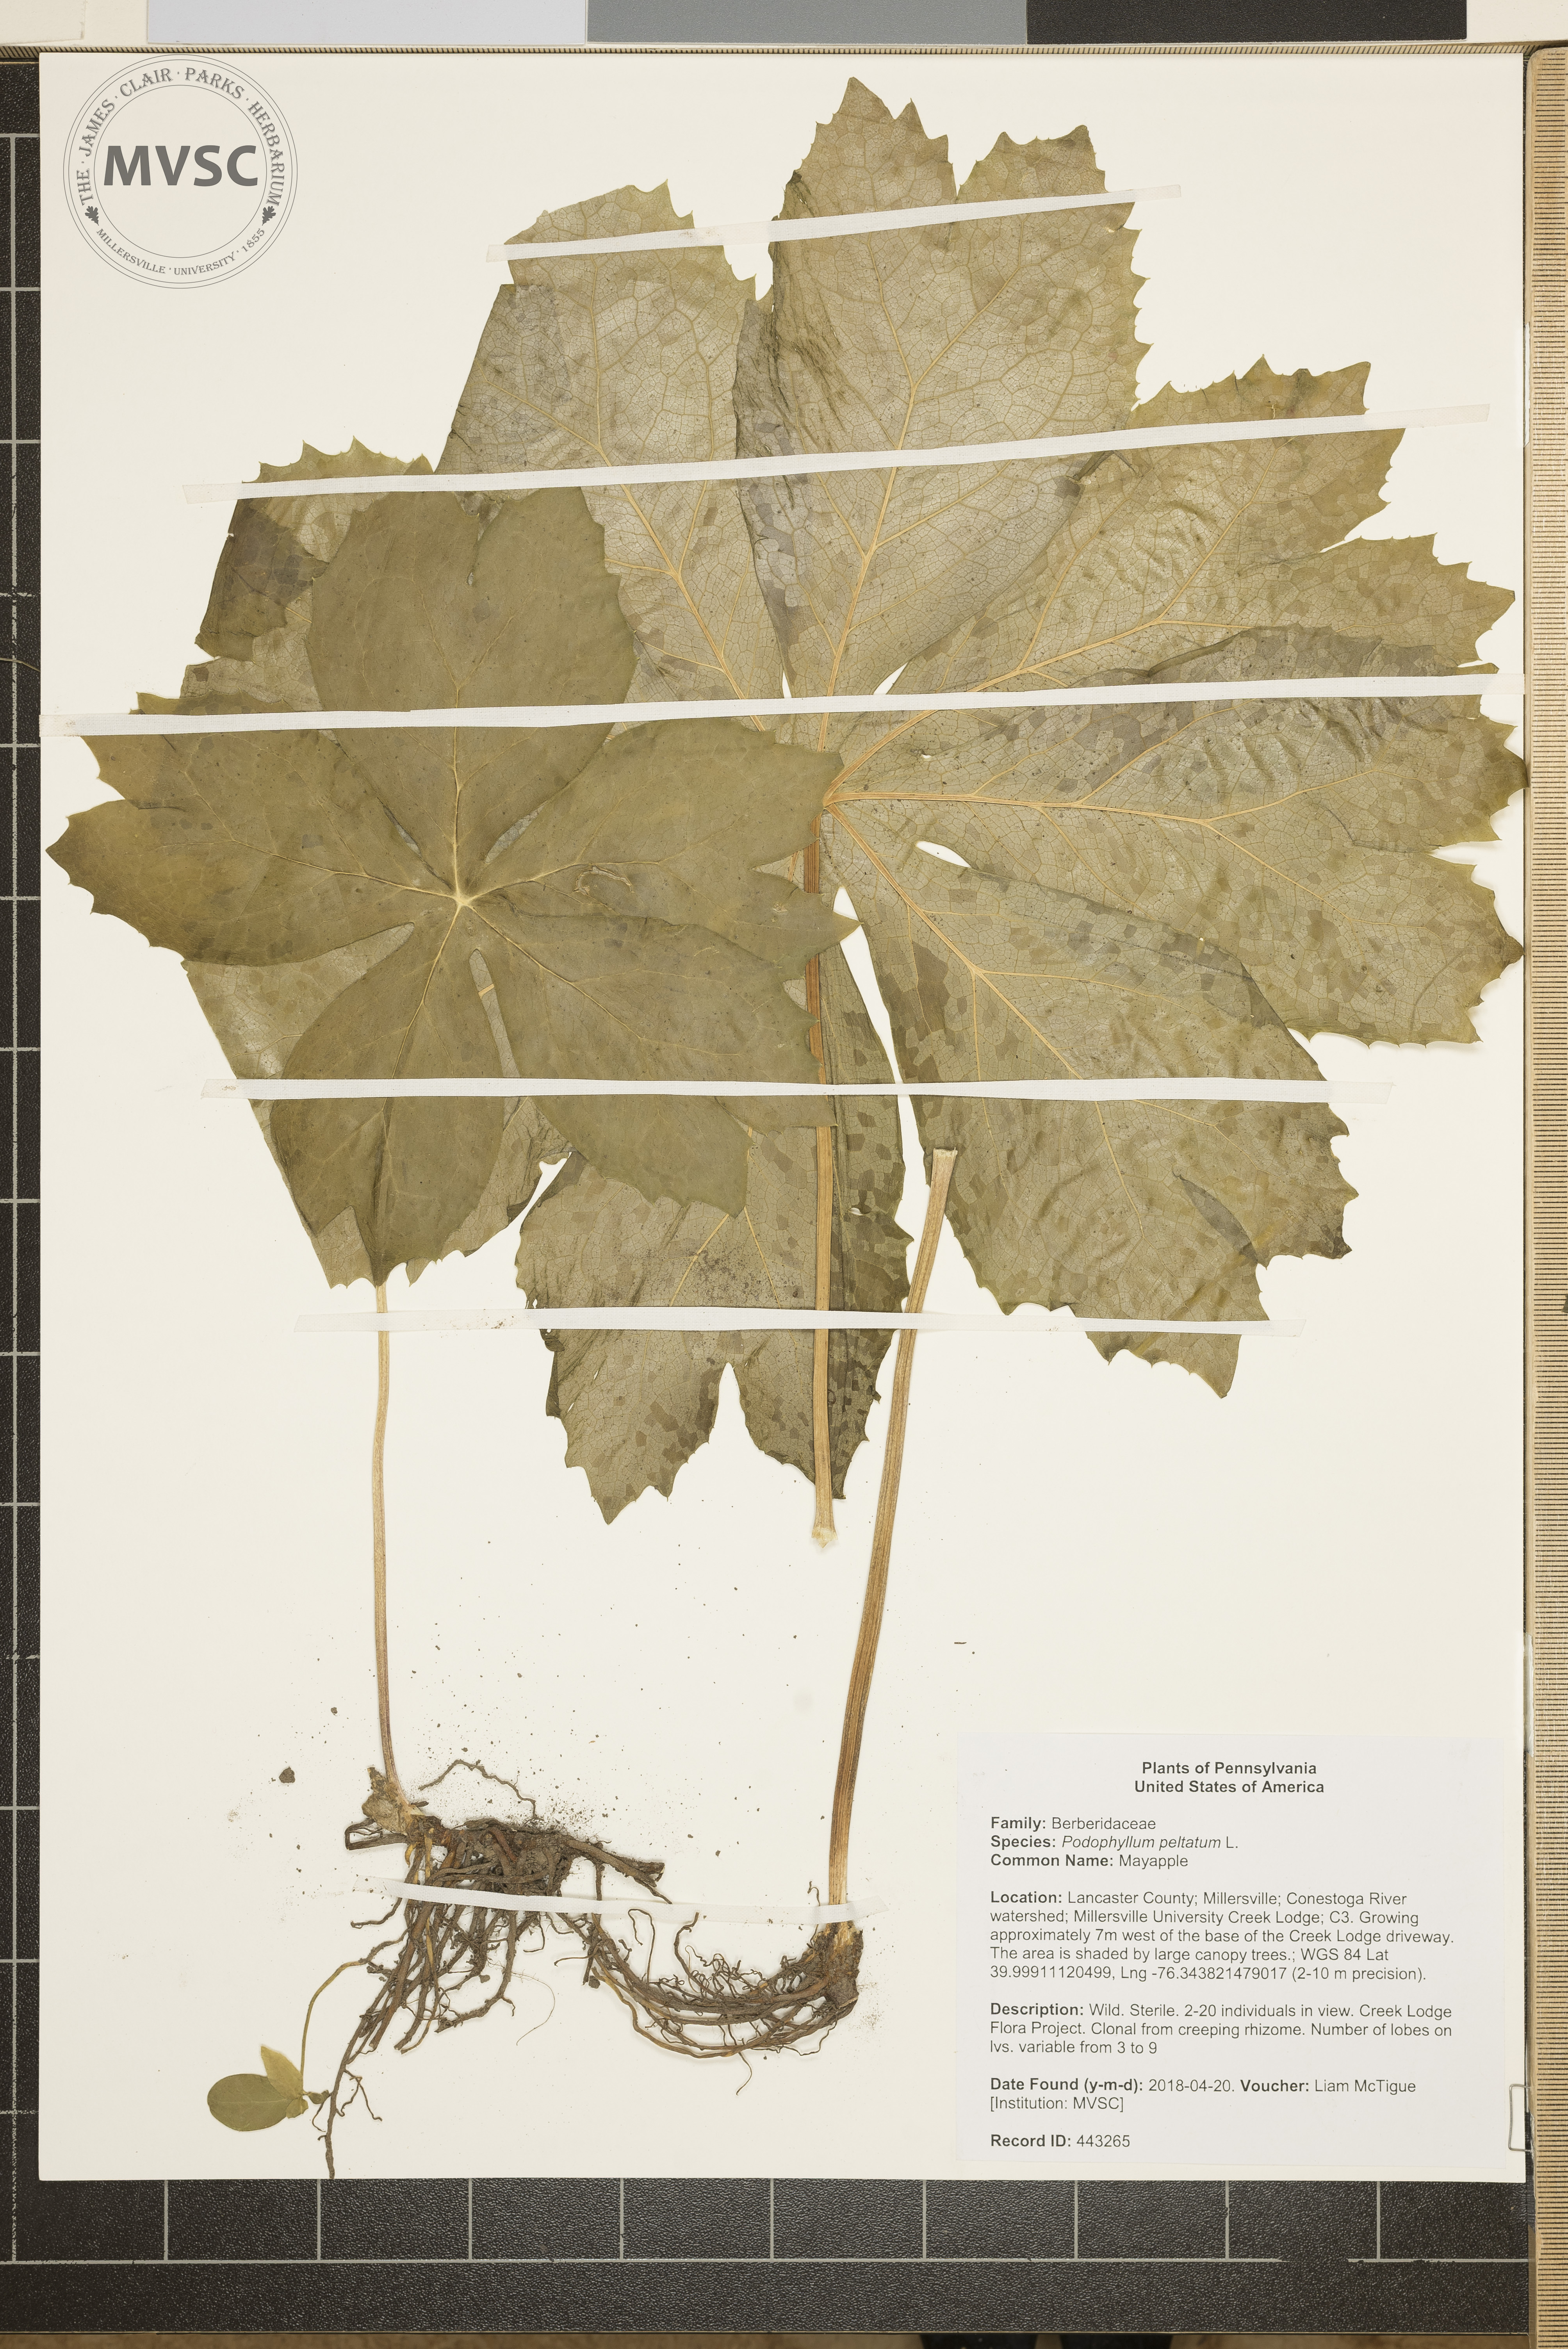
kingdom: Plantae
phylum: Tracheophyta
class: Magnoliopsida
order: Ranunculales
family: Berberidaceae
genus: Podophyllum
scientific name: Podophyllum peltatum
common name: Mayapple
